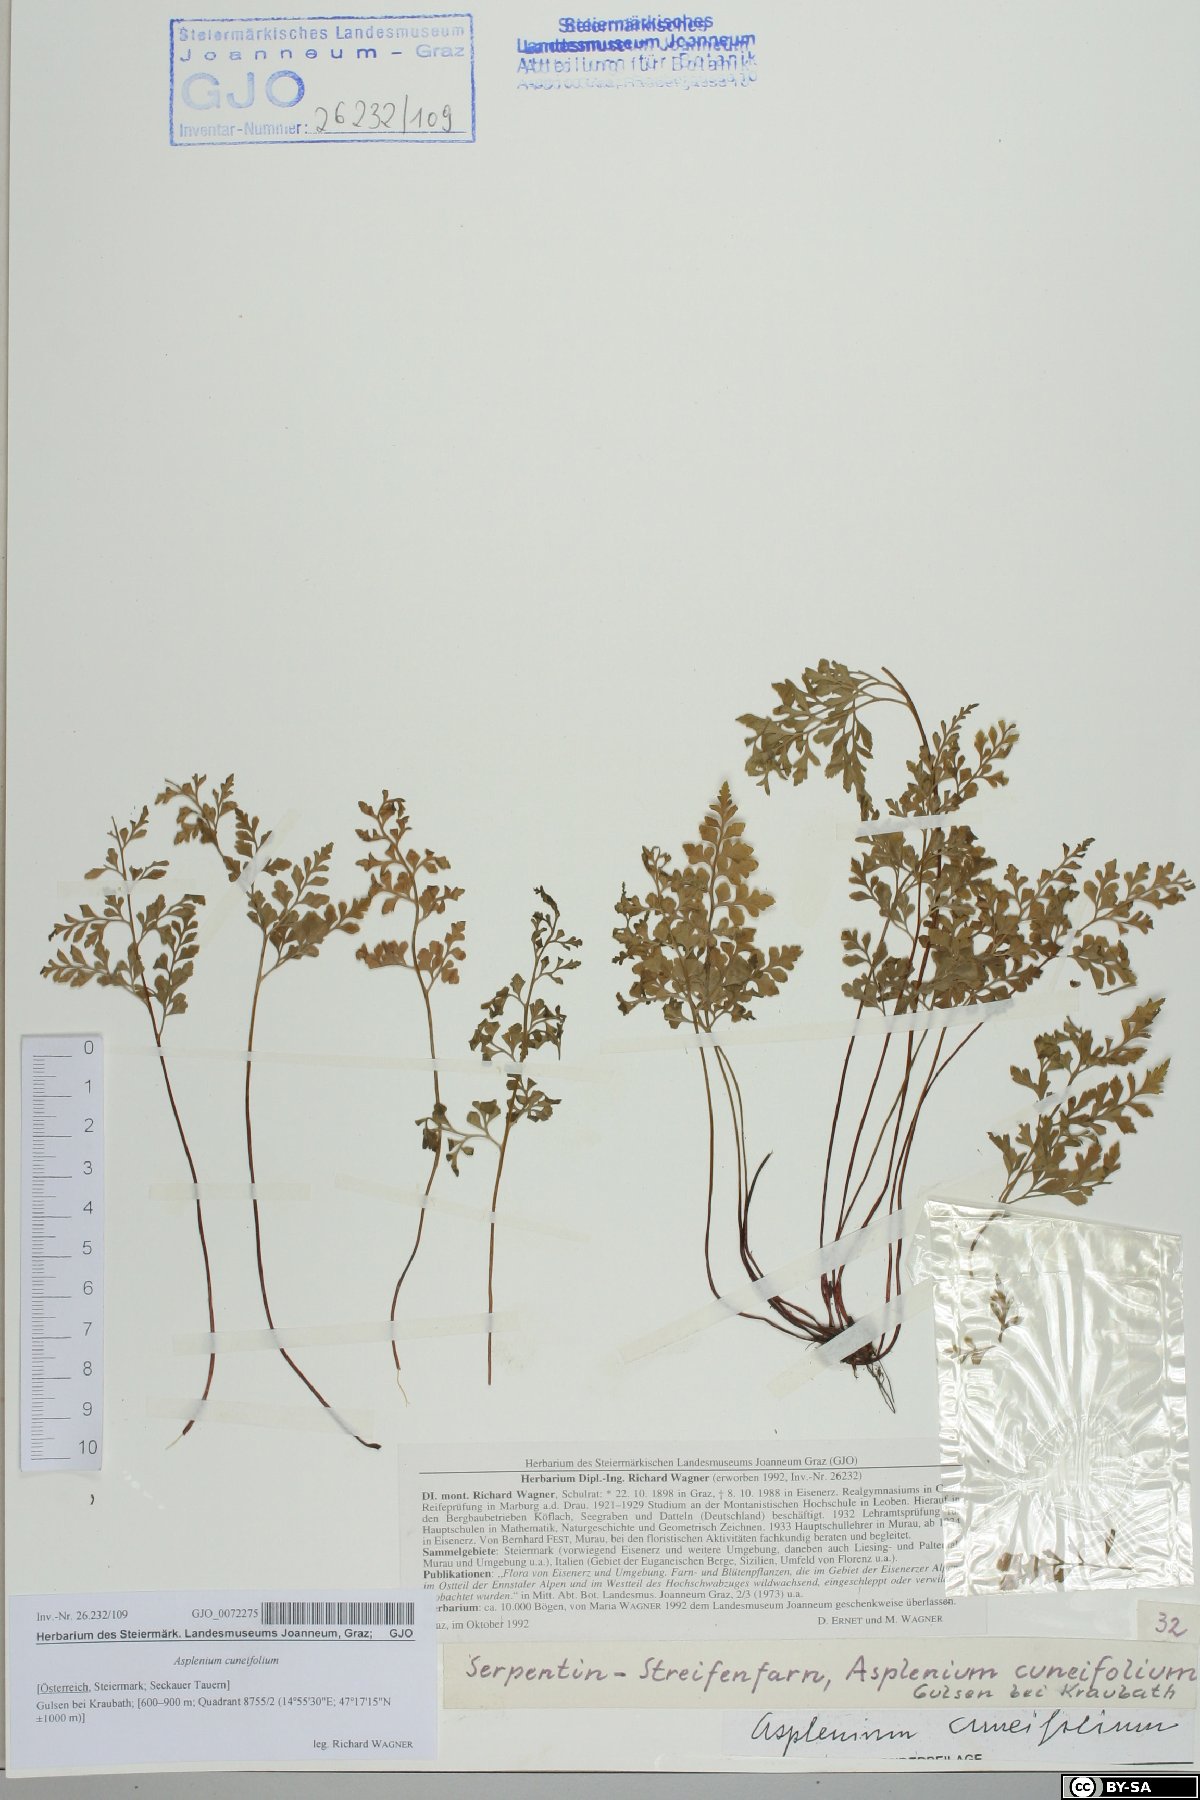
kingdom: Plantae
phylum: Tracheophyta
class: Polypodiopsida
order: Polypodiales
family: Aspleniaceae
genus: Asplenium
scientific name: Asplenium cuneifolium
